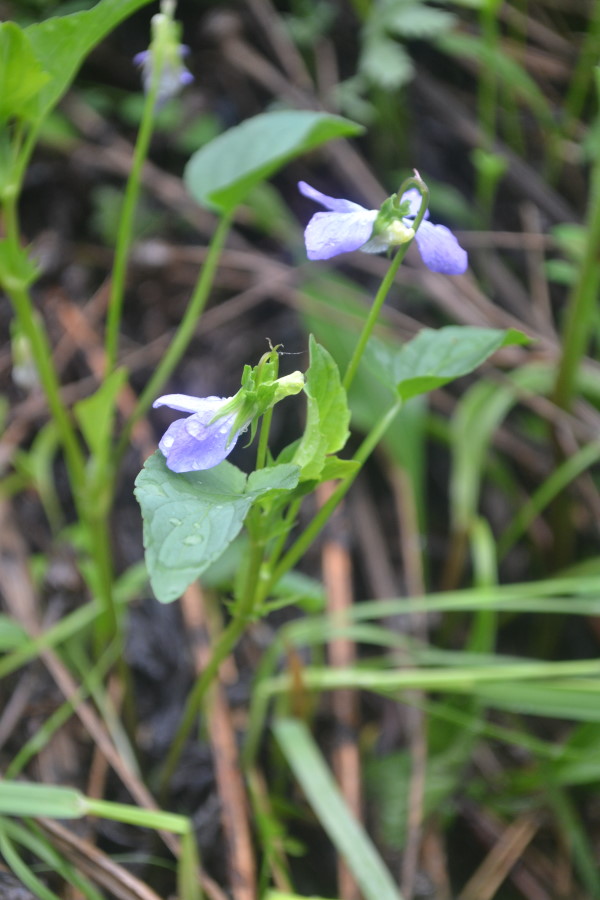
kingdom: Plantae
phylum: Tracheophyta
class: Magnoliopsida
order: Malpighiales
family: Violaceae
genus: Viola
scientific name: Viola canina
